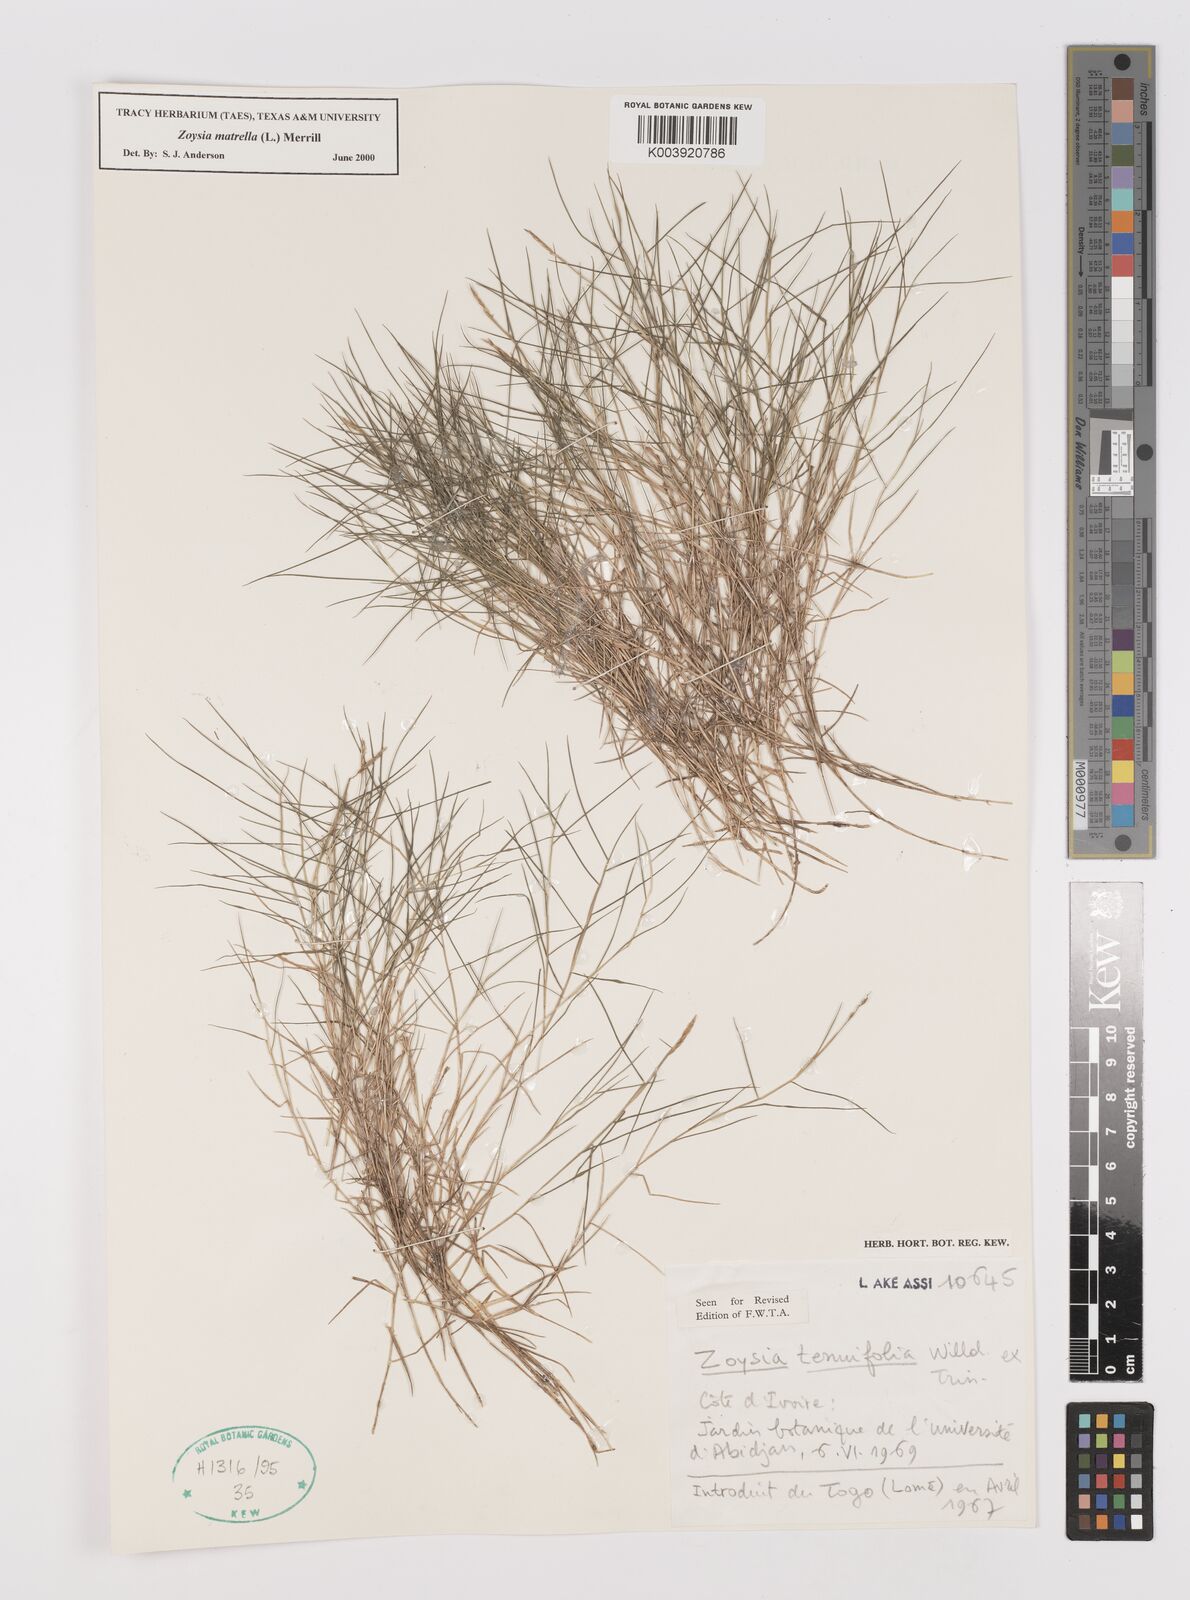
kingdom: Plantae
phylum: Tracheophyta
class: Liliopsida
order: Poales
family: Poaceae
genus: Zoysia
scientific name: Zoysia matrella
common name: Manila grass
